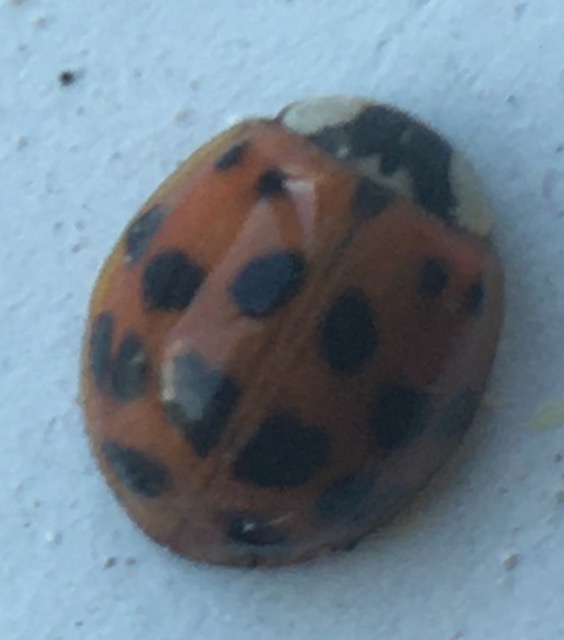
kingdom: Animalia
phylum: Arthropoda
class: Insecta
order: Coleoptera
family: Coccinellidae
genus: Harmonia
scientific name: Harmonia axyridis
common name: Harlekinmariehøne
